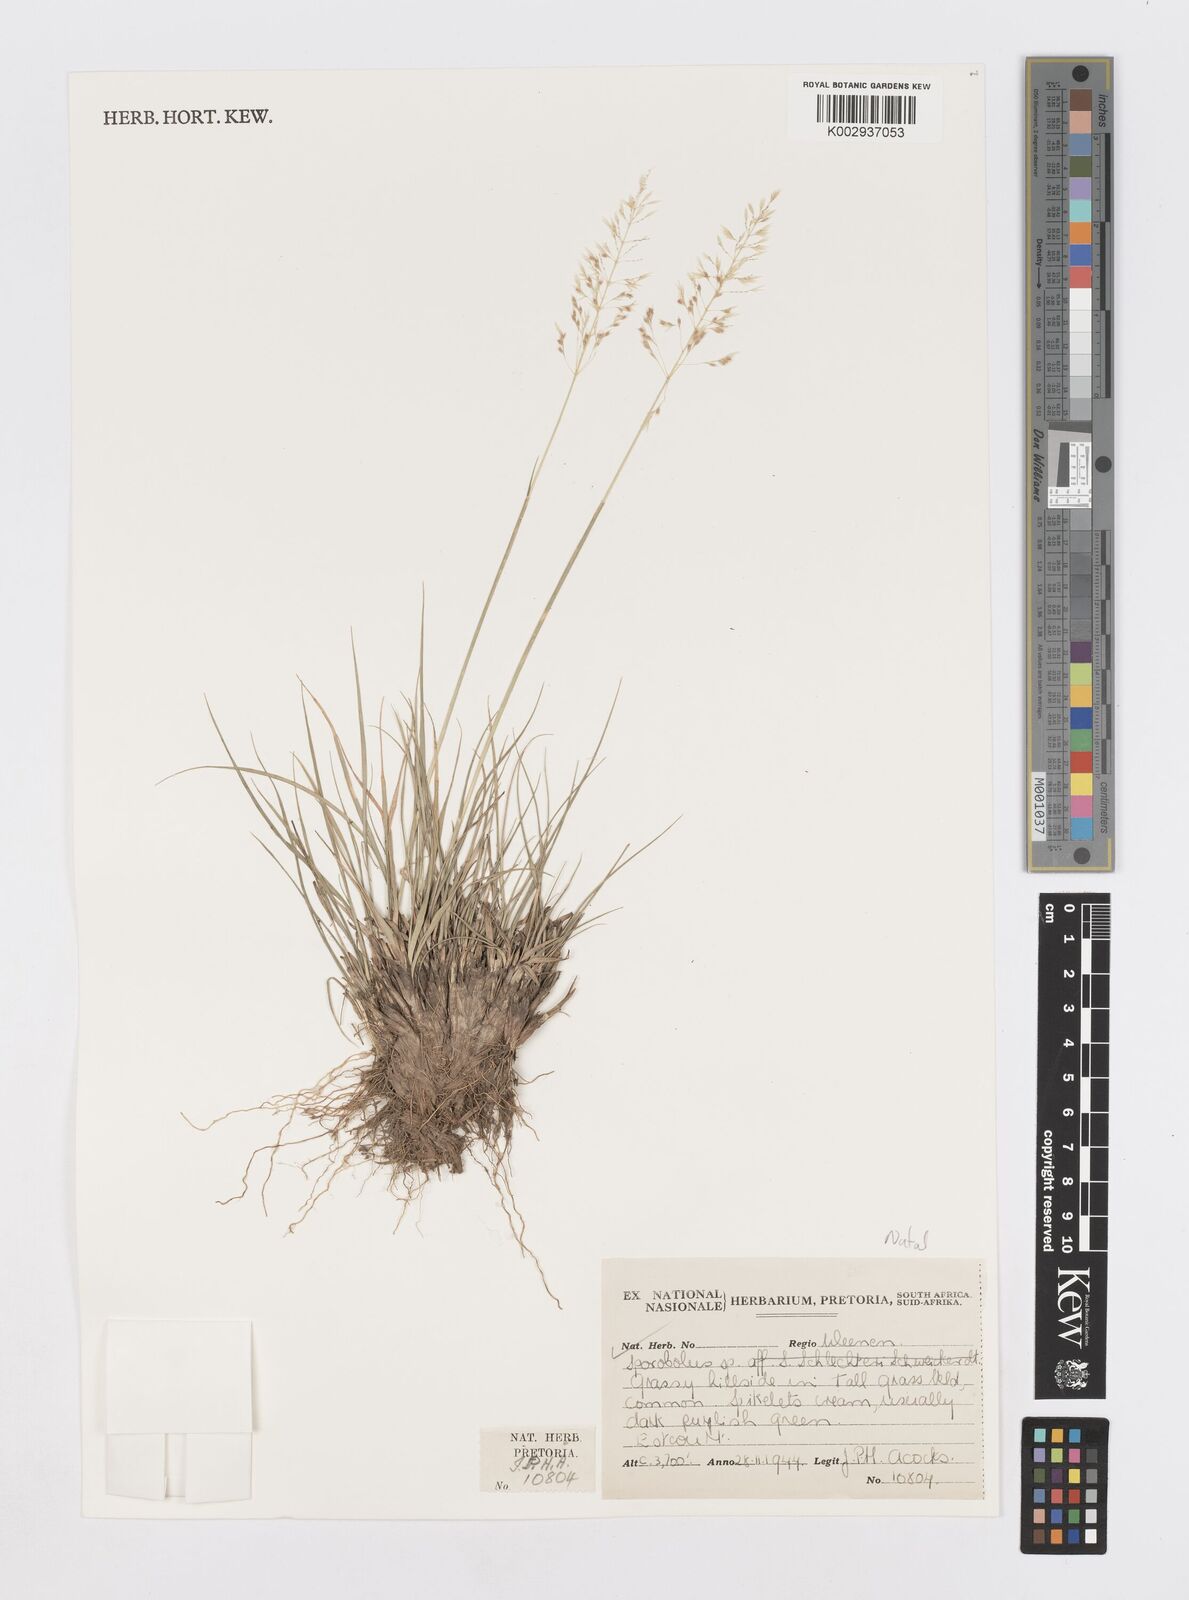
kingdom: Plantae
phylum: Tracheophyta
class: Liliopsida
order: Poales
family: Poaceae
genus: Sporobolus
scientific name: Sporobolus
